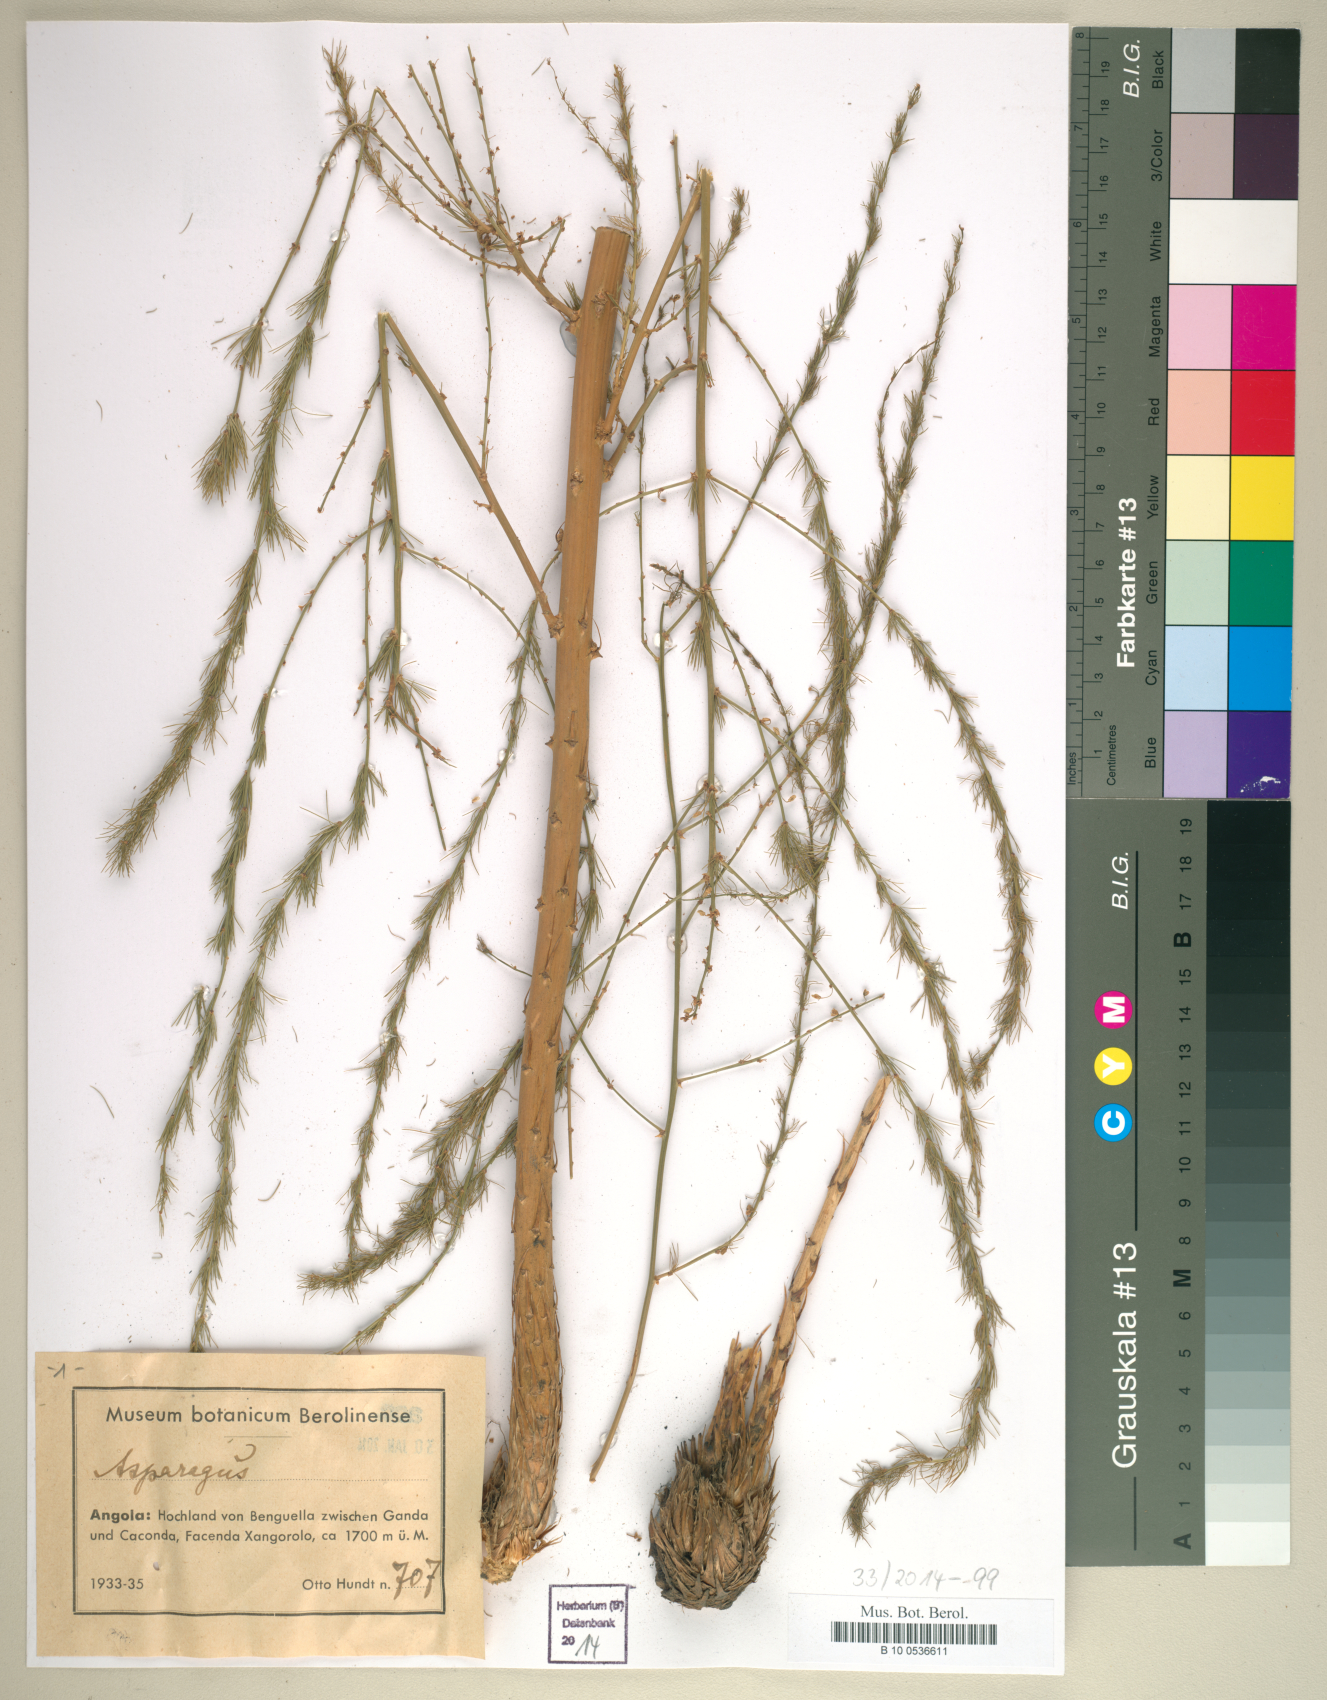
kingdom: Plantae
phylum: Tracheophyta
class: Liliopsida
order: Liliales
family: Liliaceae
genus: Asparagus
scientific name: Asparagus
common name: Asparagus
